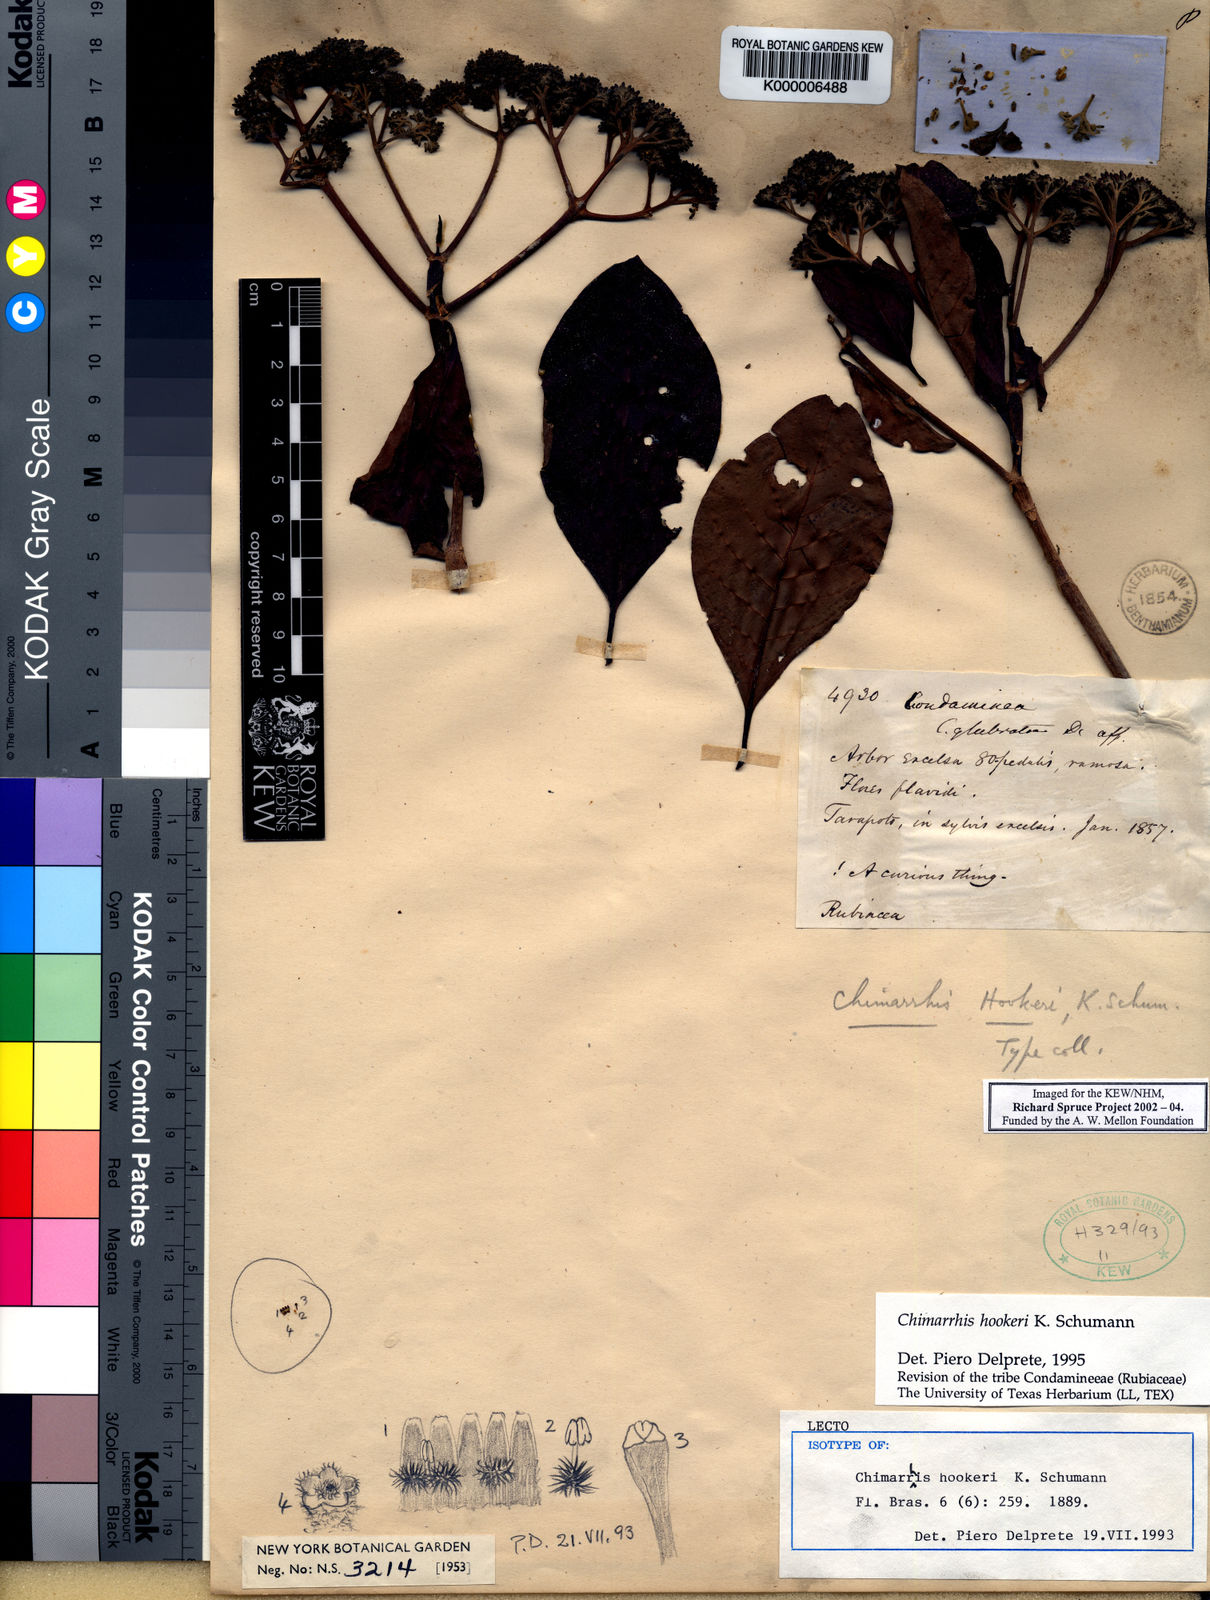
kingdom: Plantae
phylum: Tracheophyta
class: Magnoliopsida
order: Gentianales
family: Rubiaceae
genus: Chimarrhis
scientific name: Chimarrhis hookeri
